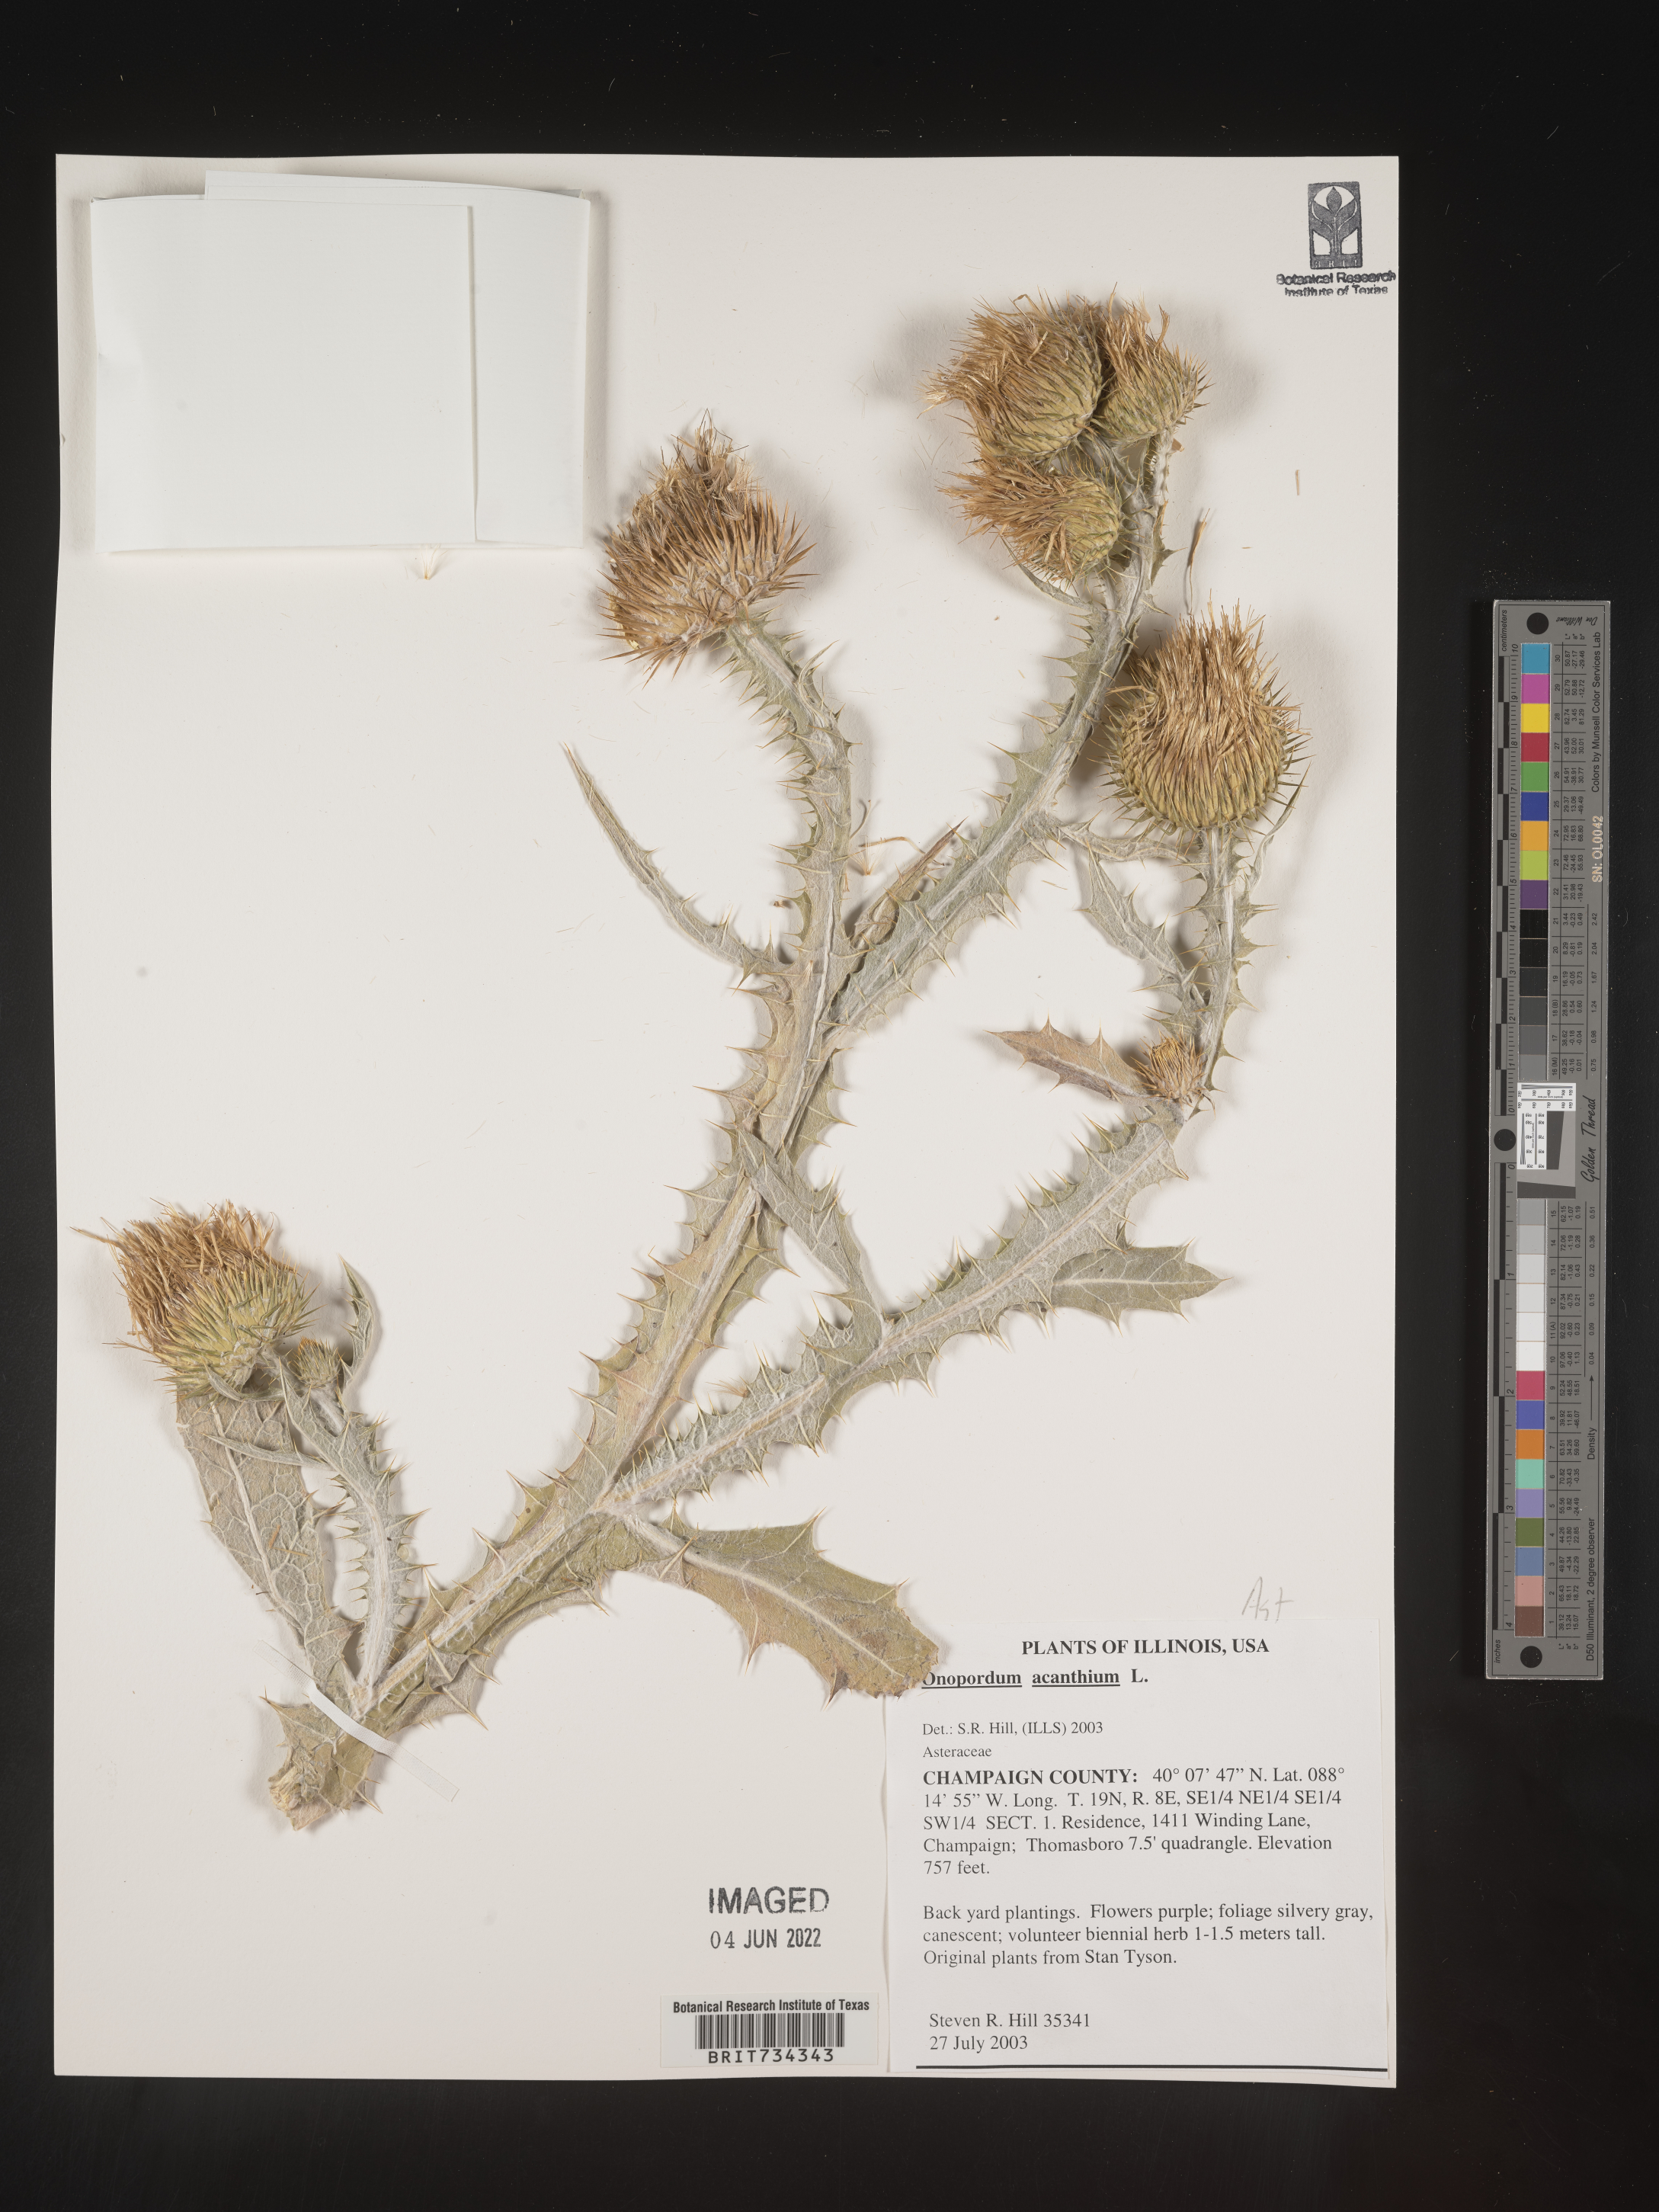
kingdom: Plantae
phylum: Tracheophyta
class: Magnoliopsida
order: Asterales
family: Asteraceae
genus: Onopordum
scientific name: Onopordum acanthium
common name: Scotch thistle
